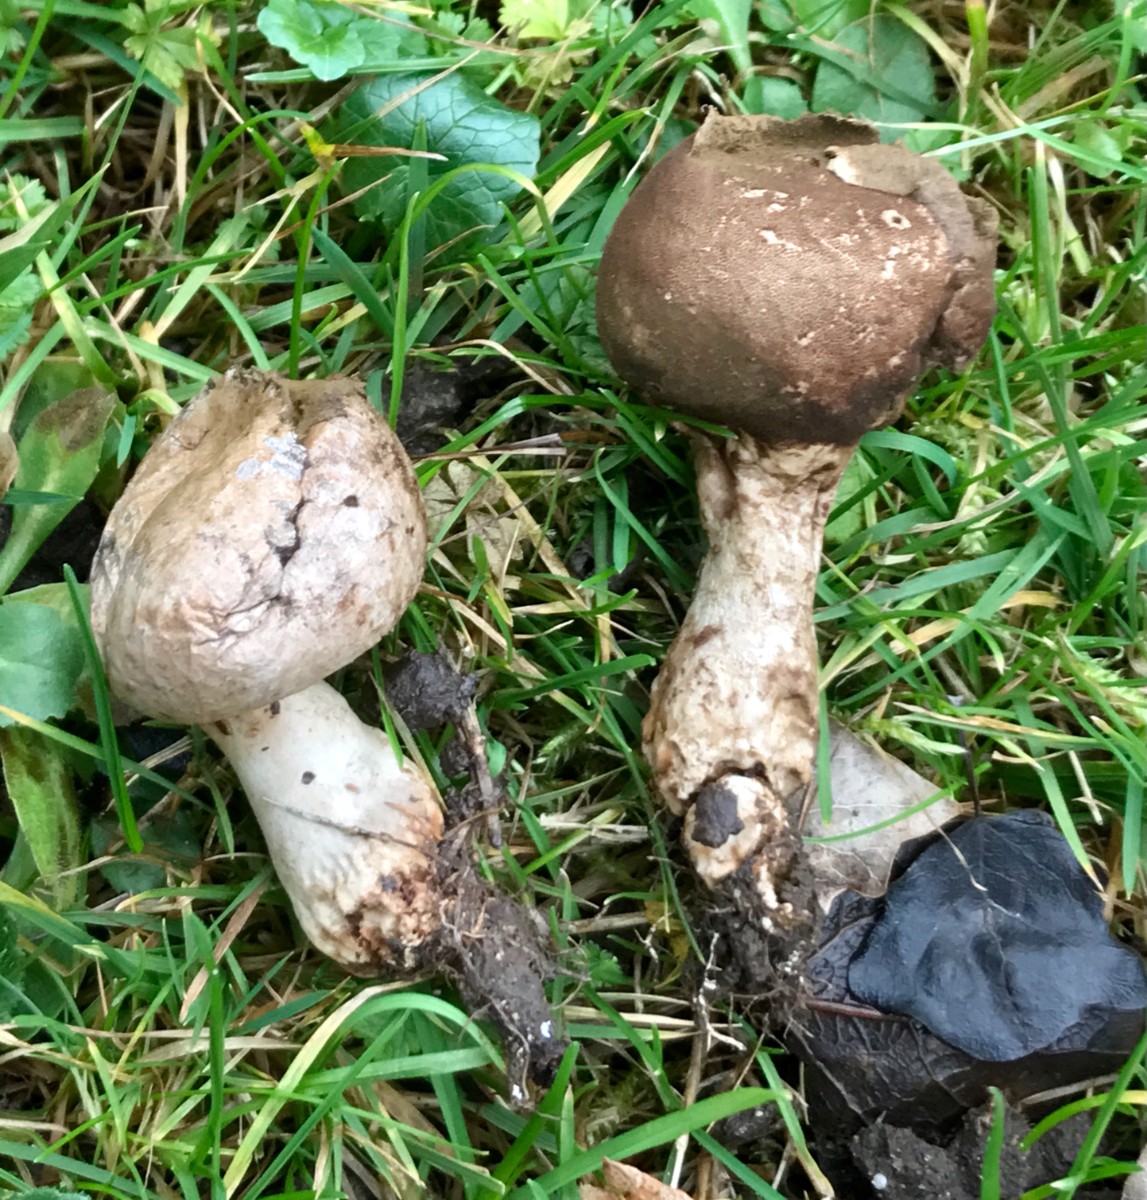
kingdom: Fungi
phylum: Basidiomycota
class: Agaricomycetes
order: Agaricales
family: Lycoperdaceae
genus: Apioperdon
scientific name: Apioperdon pyriforme
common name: pære-støvbold
